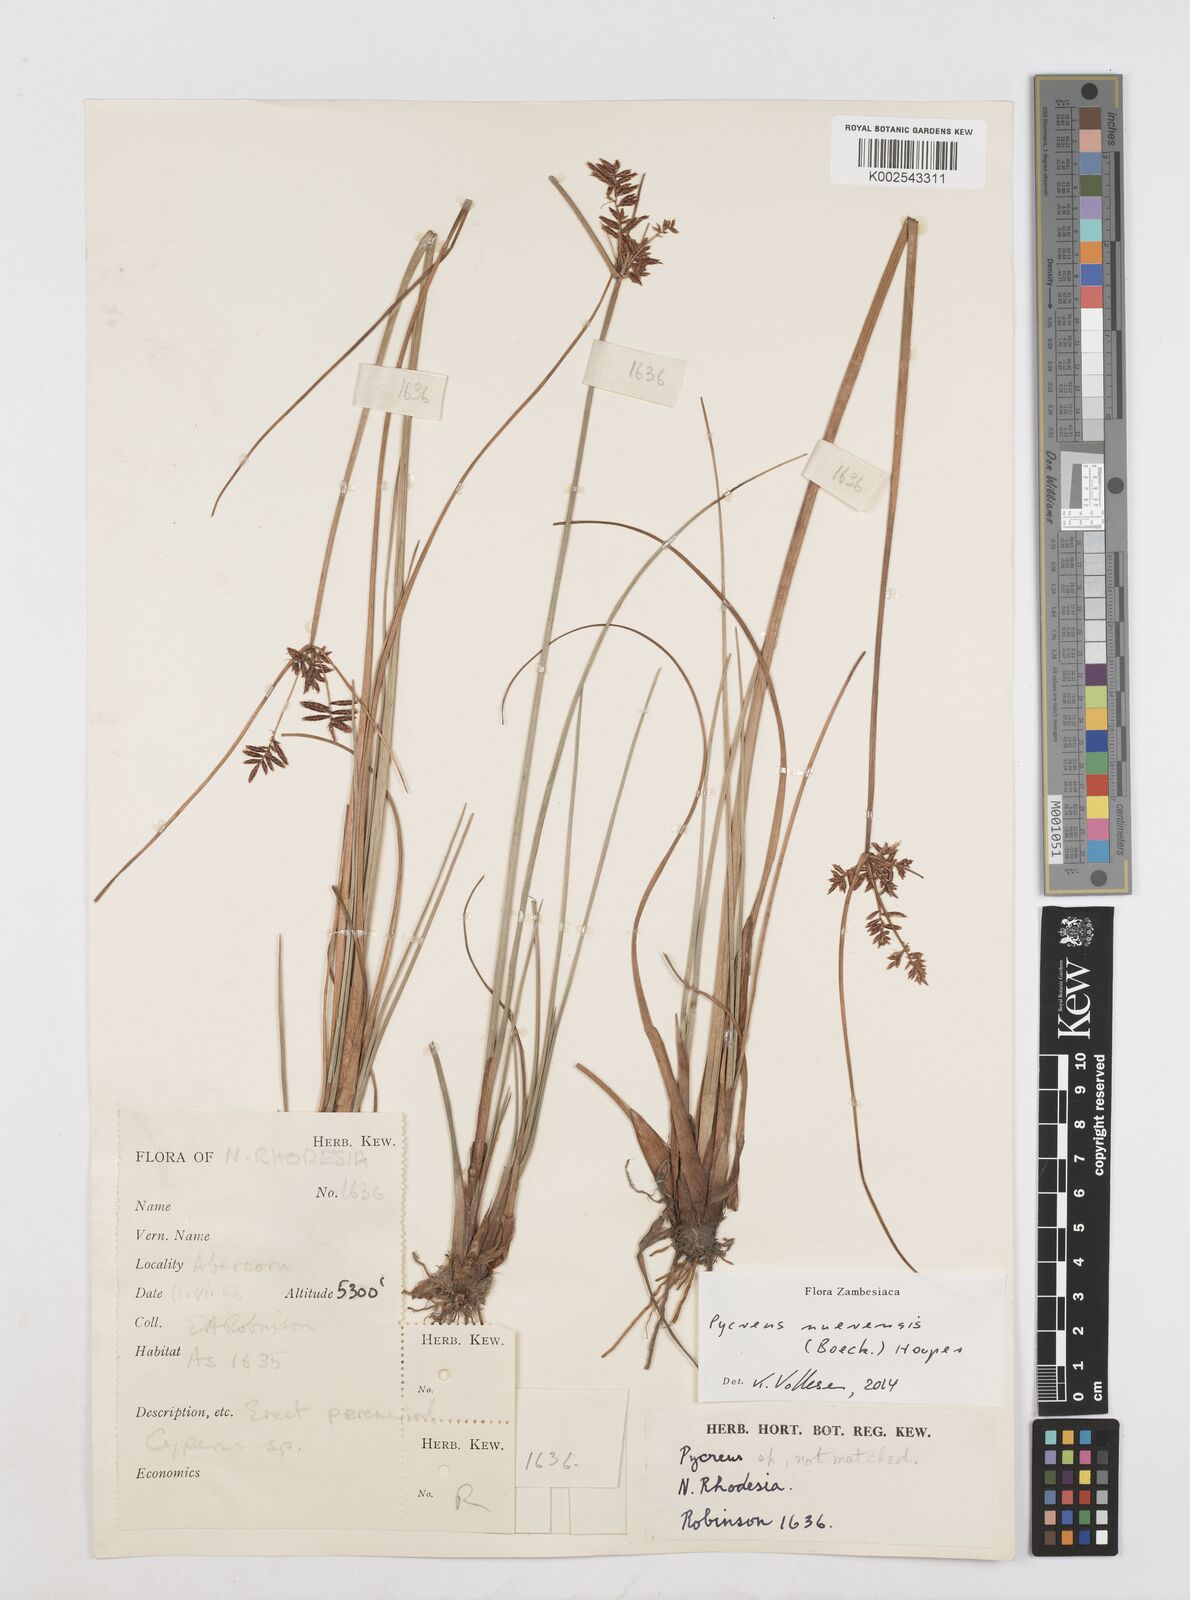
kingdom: Plantae
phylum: Tracheophyta
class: Liliopsida
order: Poales
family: Cyperaceae
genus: Cyperus
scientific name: Cyperus nuerensis
